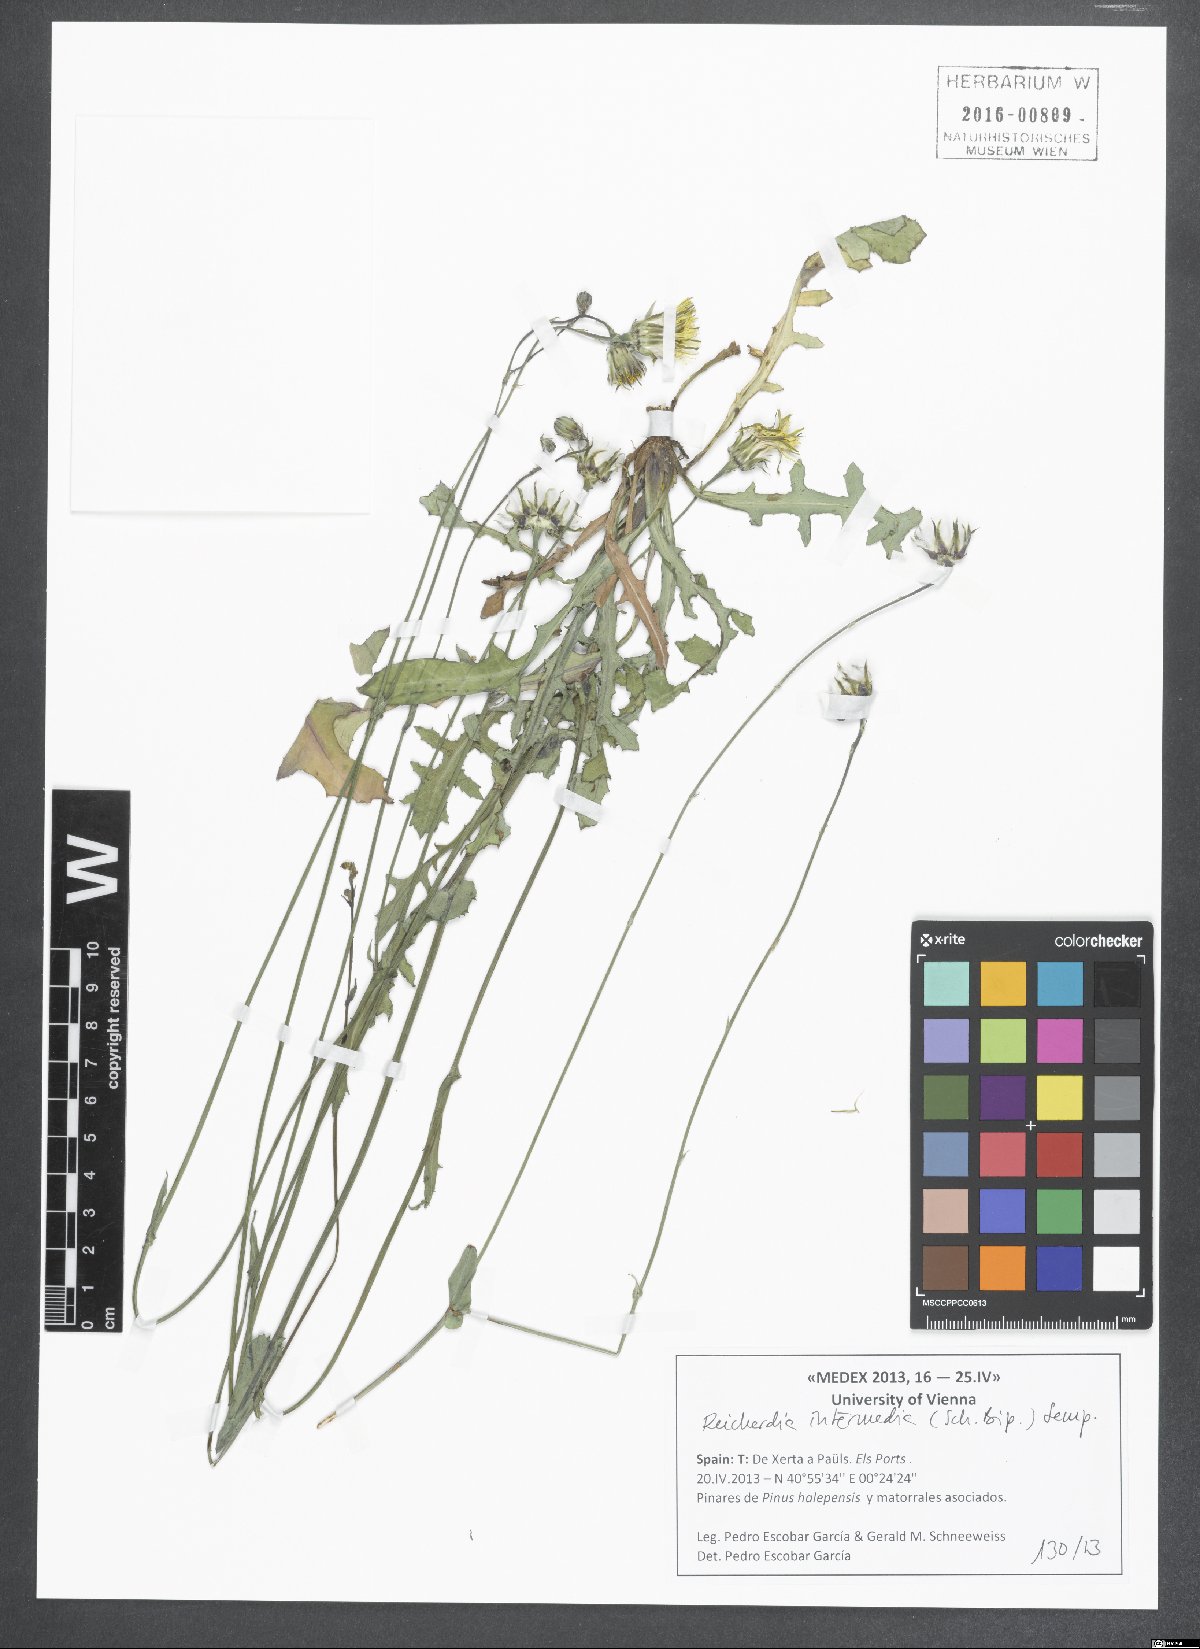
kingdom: Plantae
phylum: Tracheophyta
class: Magnoliopsida
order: Asterales
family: Asteraceae
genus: Reichardia
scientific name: Reichardia intermedia
